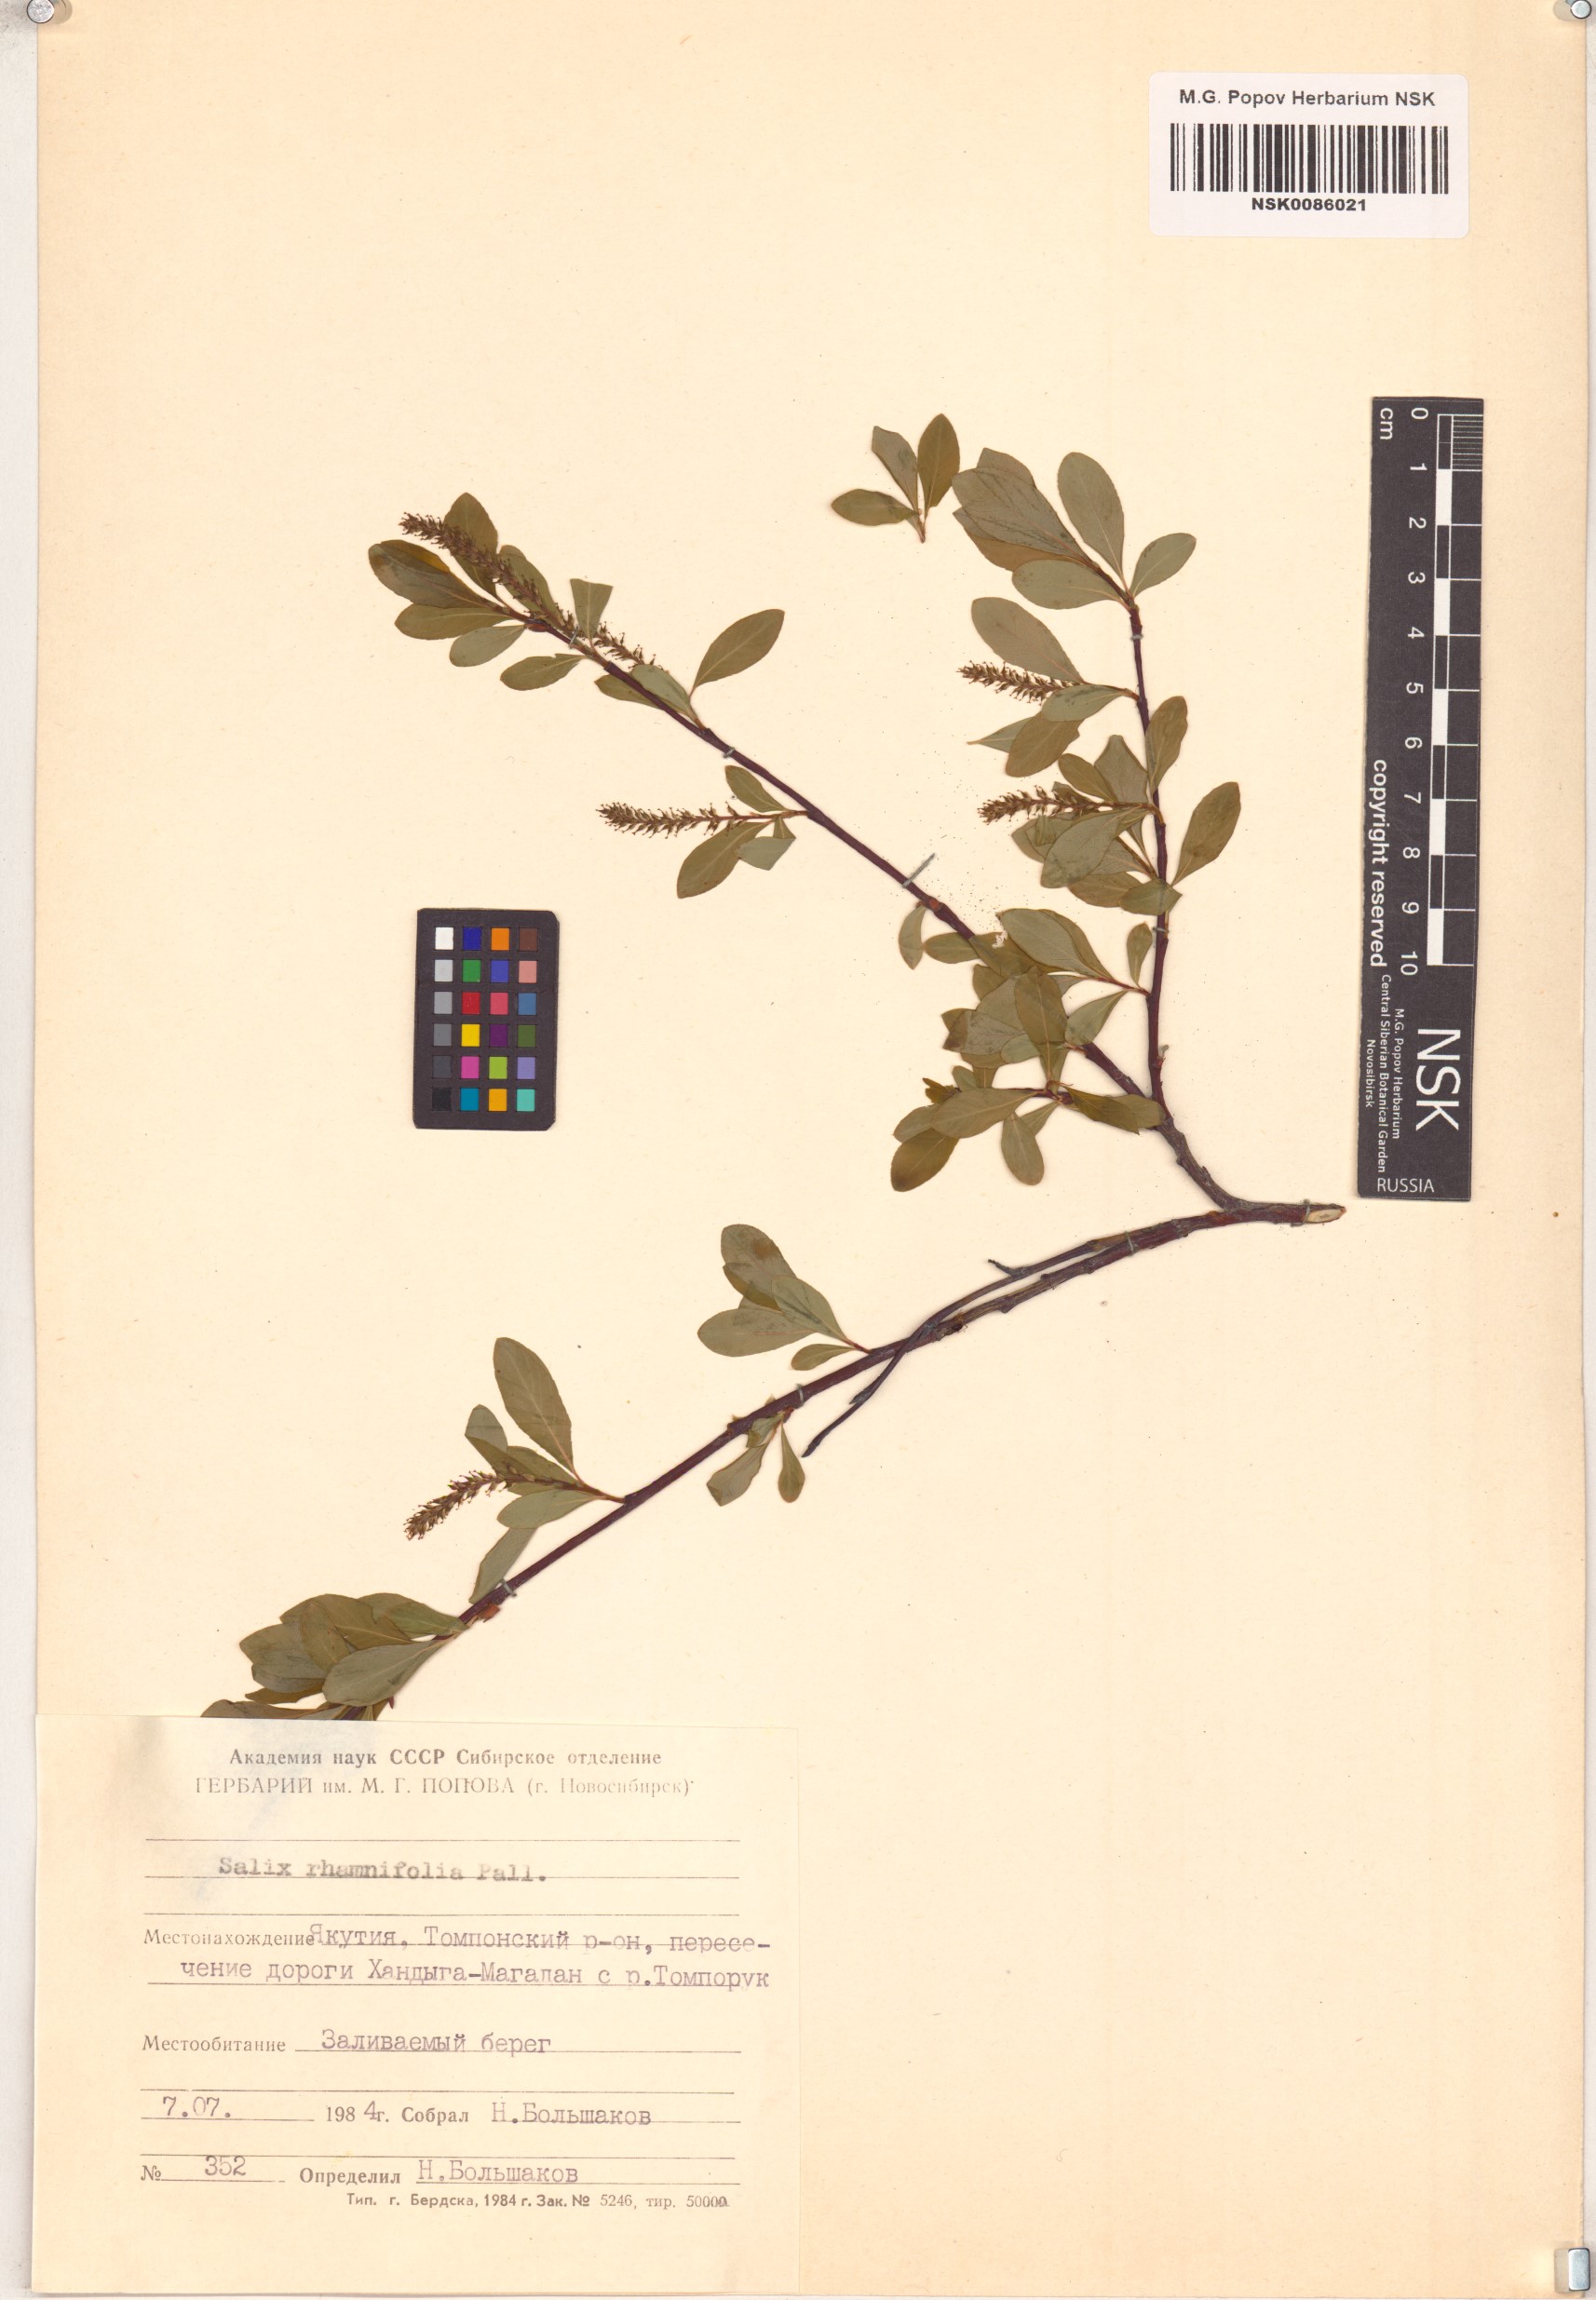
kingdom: Plantae
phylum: Tracheophyta
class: Magnoliopsida
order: Malpighiales
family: Salicaceae
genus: Salix
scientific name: Salix rhamnifolia
